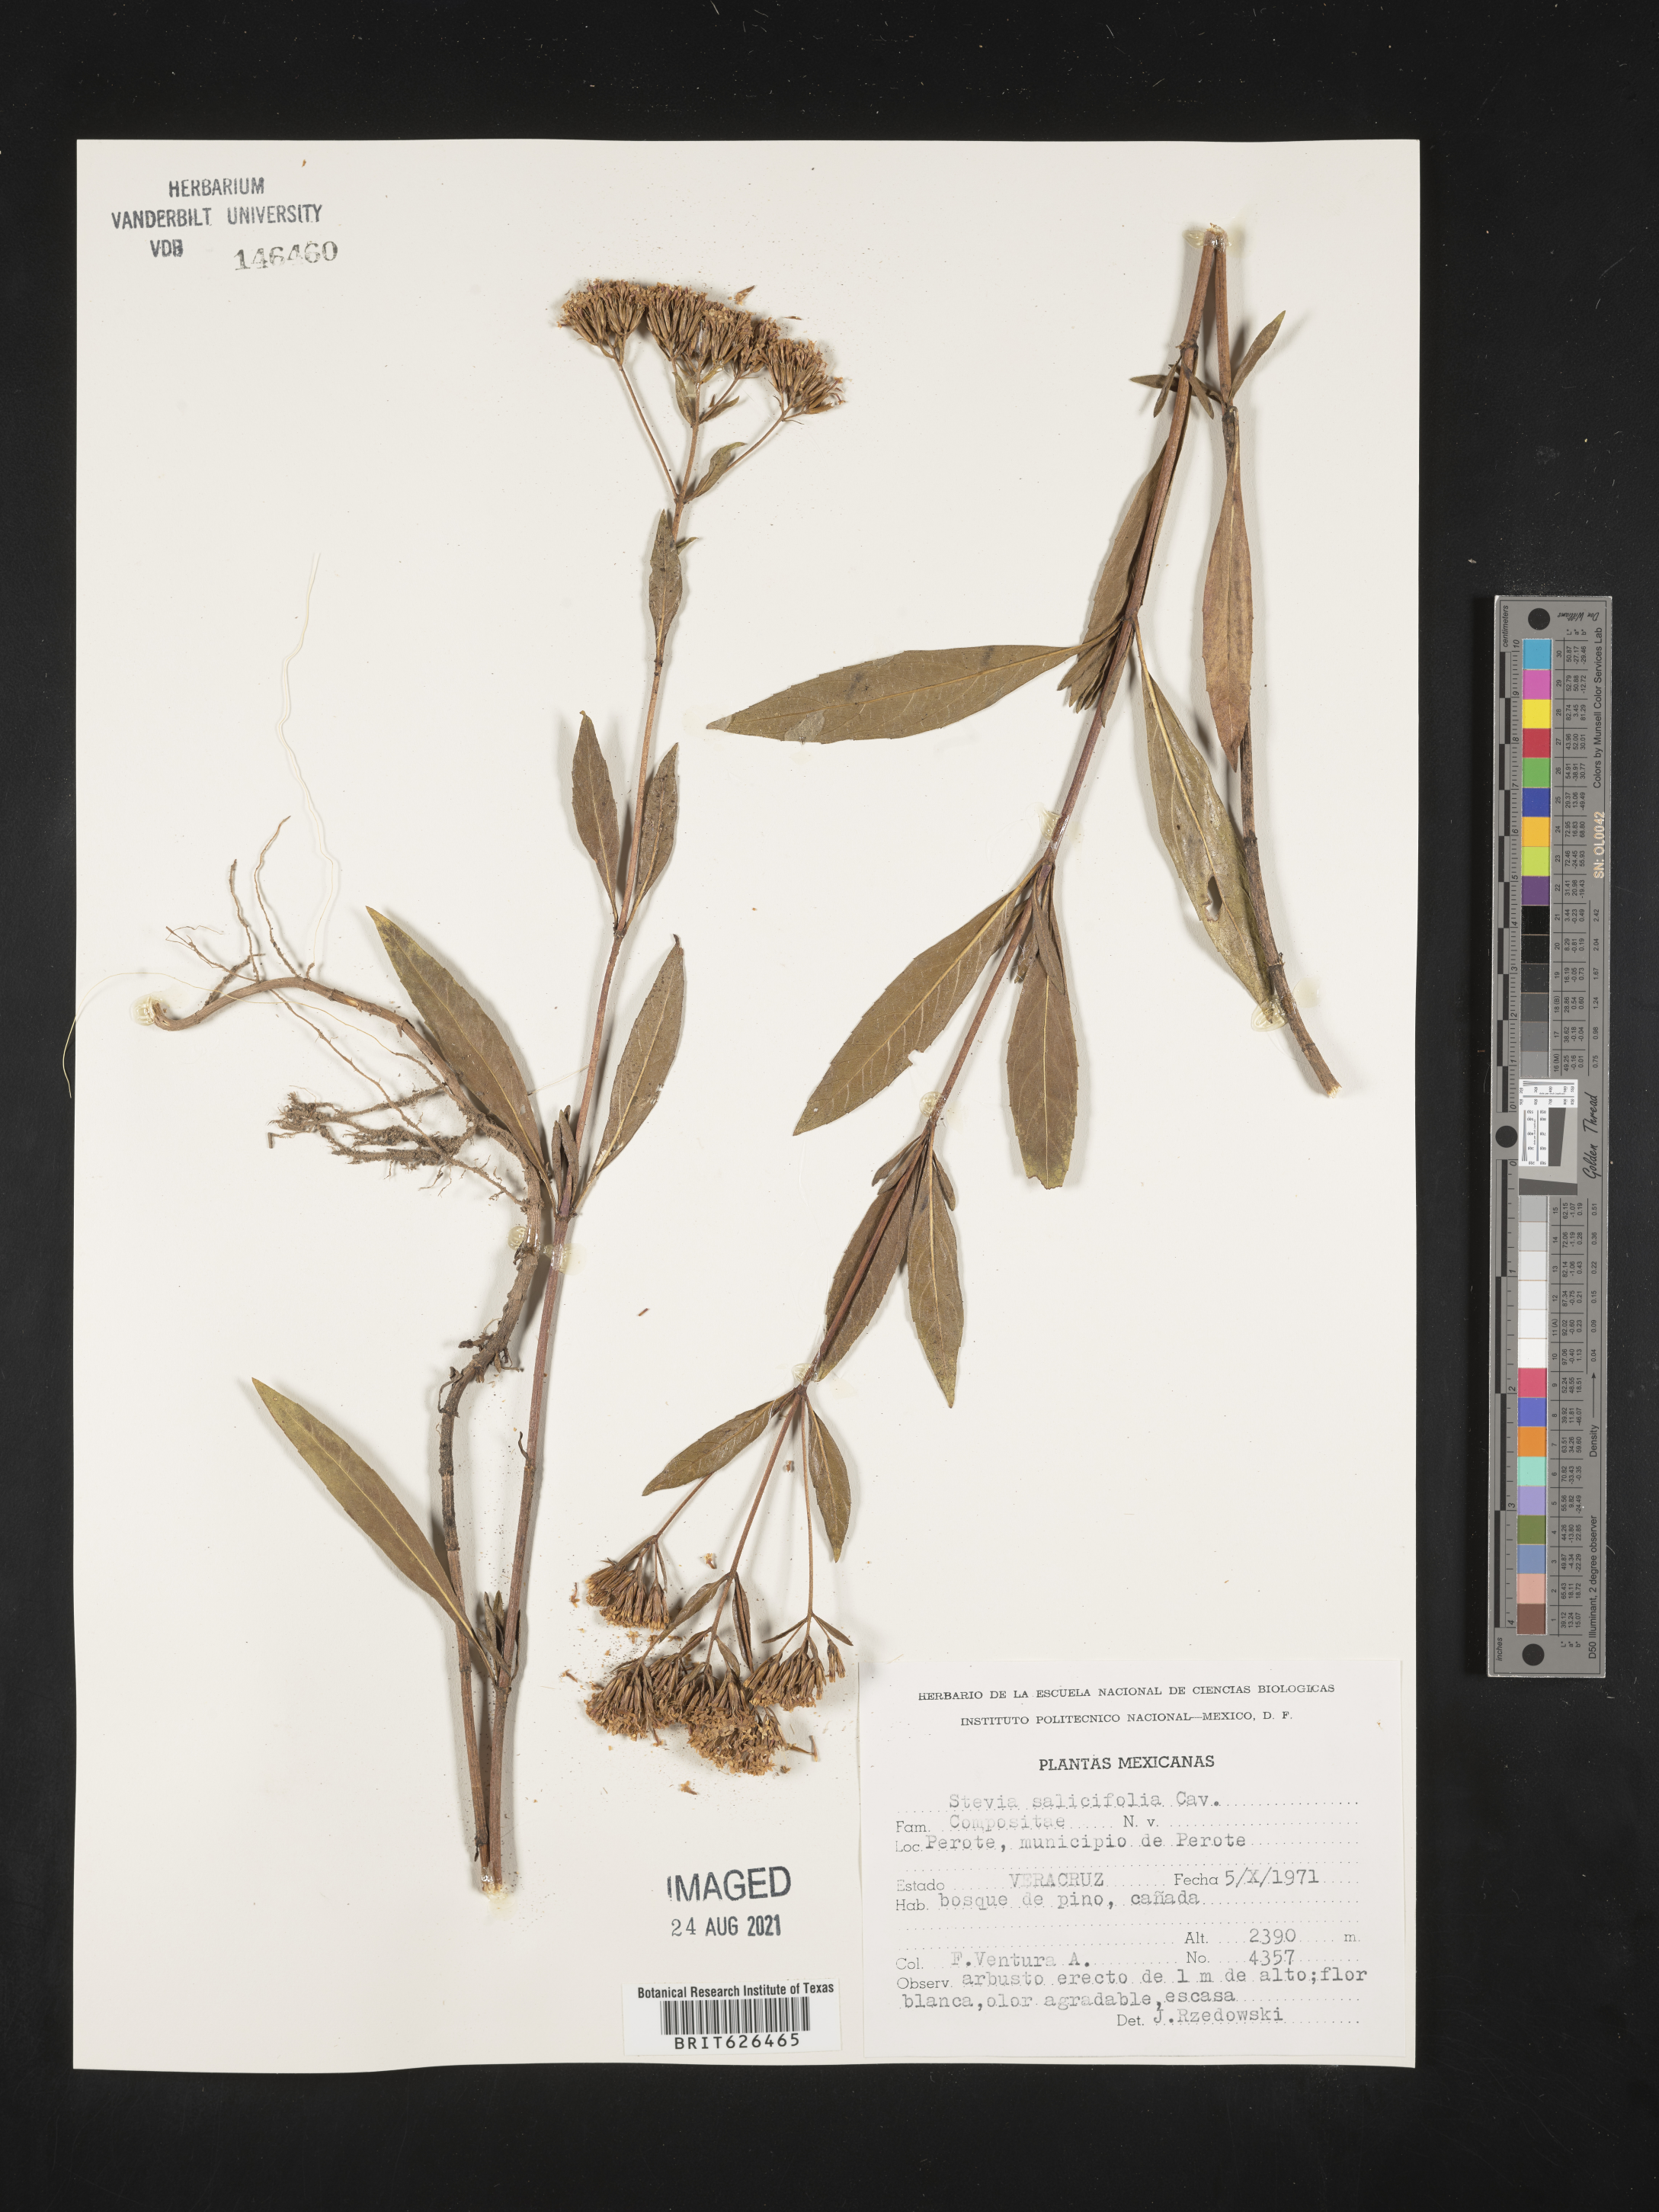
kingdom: Plantae
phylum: Tracheophyta
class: Magnoliopsida
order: Asterales
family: Asteraceae
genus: Stevia
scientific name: Stevia
